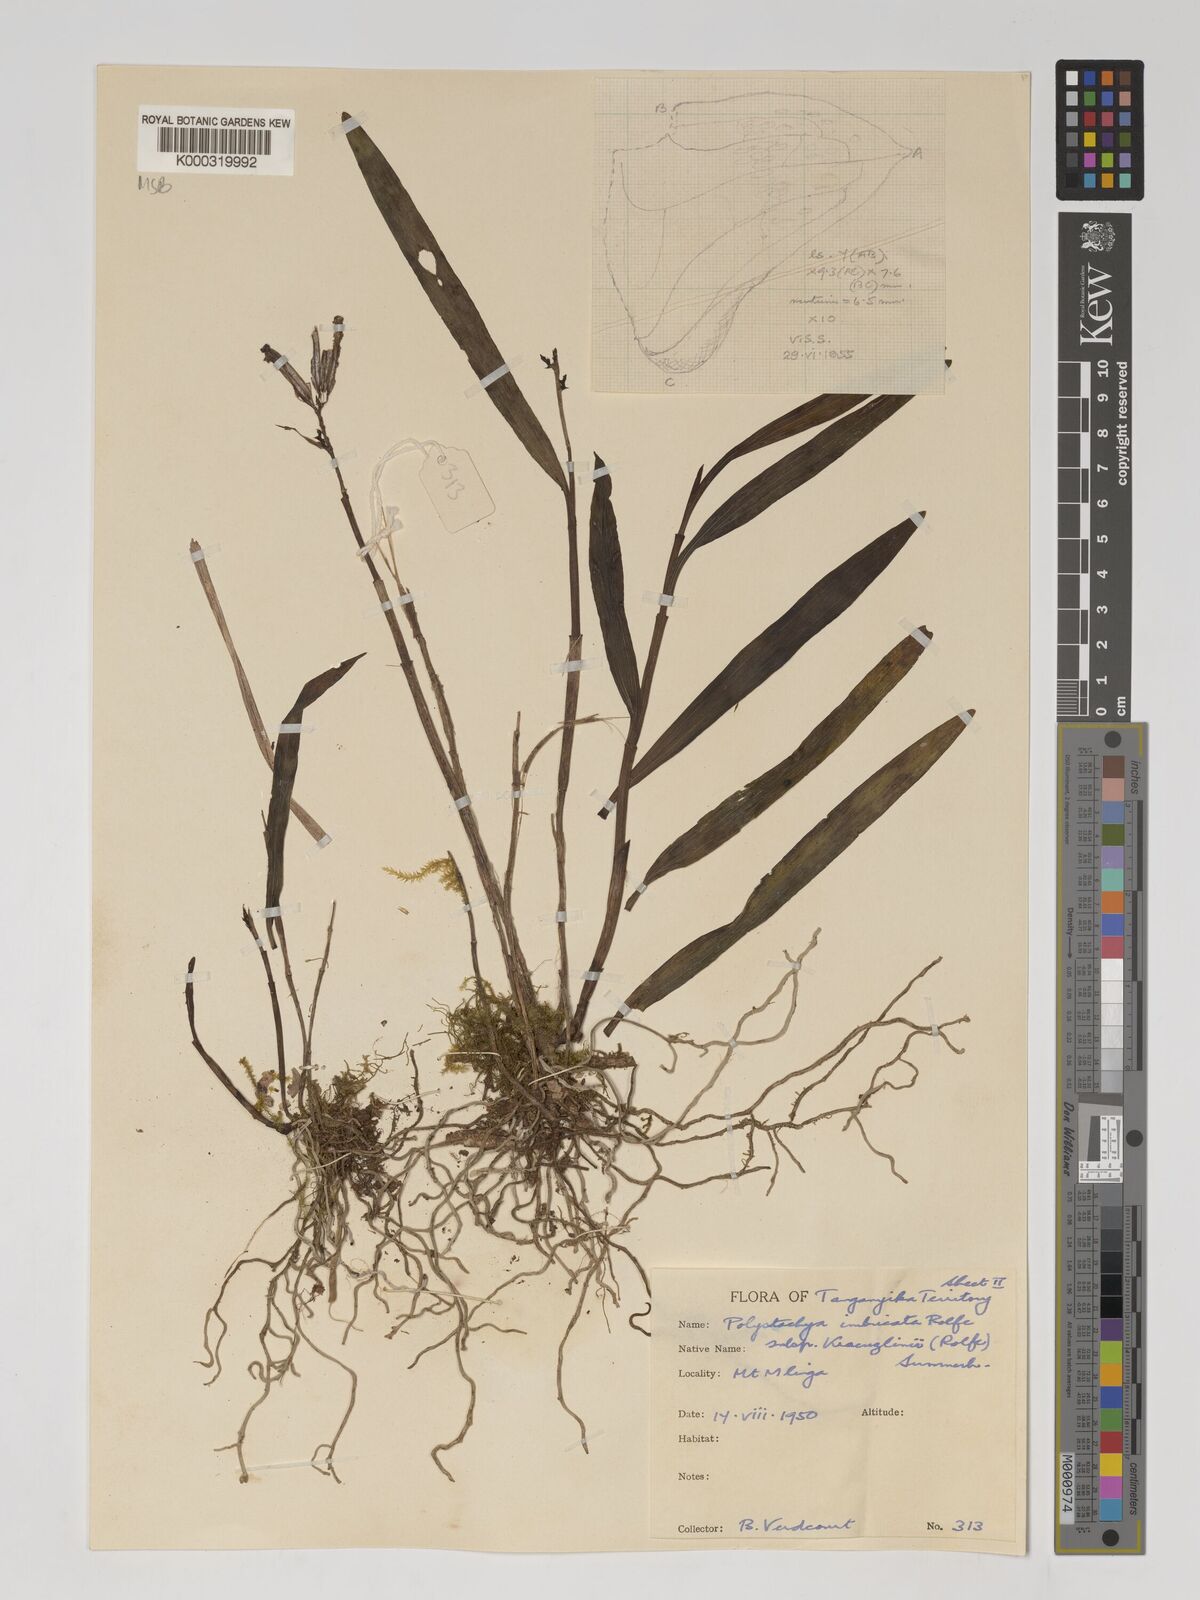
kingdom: Plantae
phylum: Tracheophyta
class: Liliopsida
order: Asparagales
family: Orchidaceae
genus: Polystachya
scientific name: Polystachya albescens
